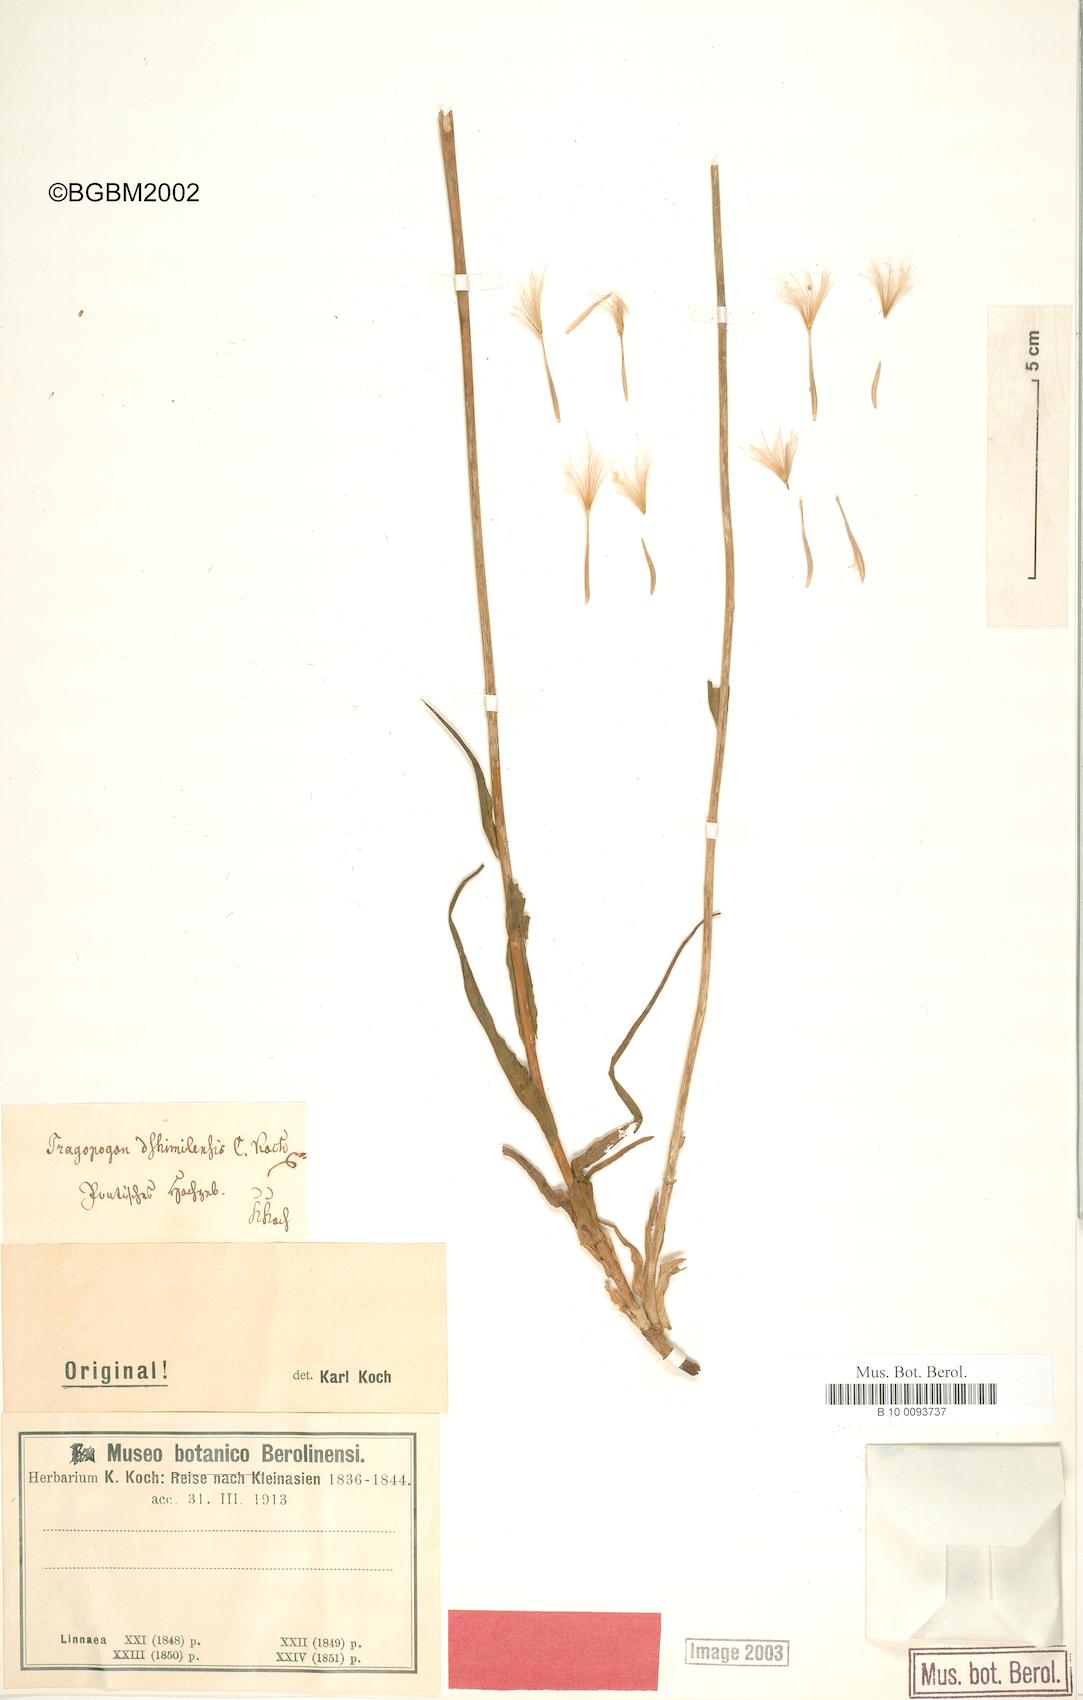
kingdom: Plantae
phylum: Tracheophyta
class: Magnoliopsida
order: Asterales
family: Asteraceae
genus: Tragopogon
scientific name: Tragopogon coelesyriacus
